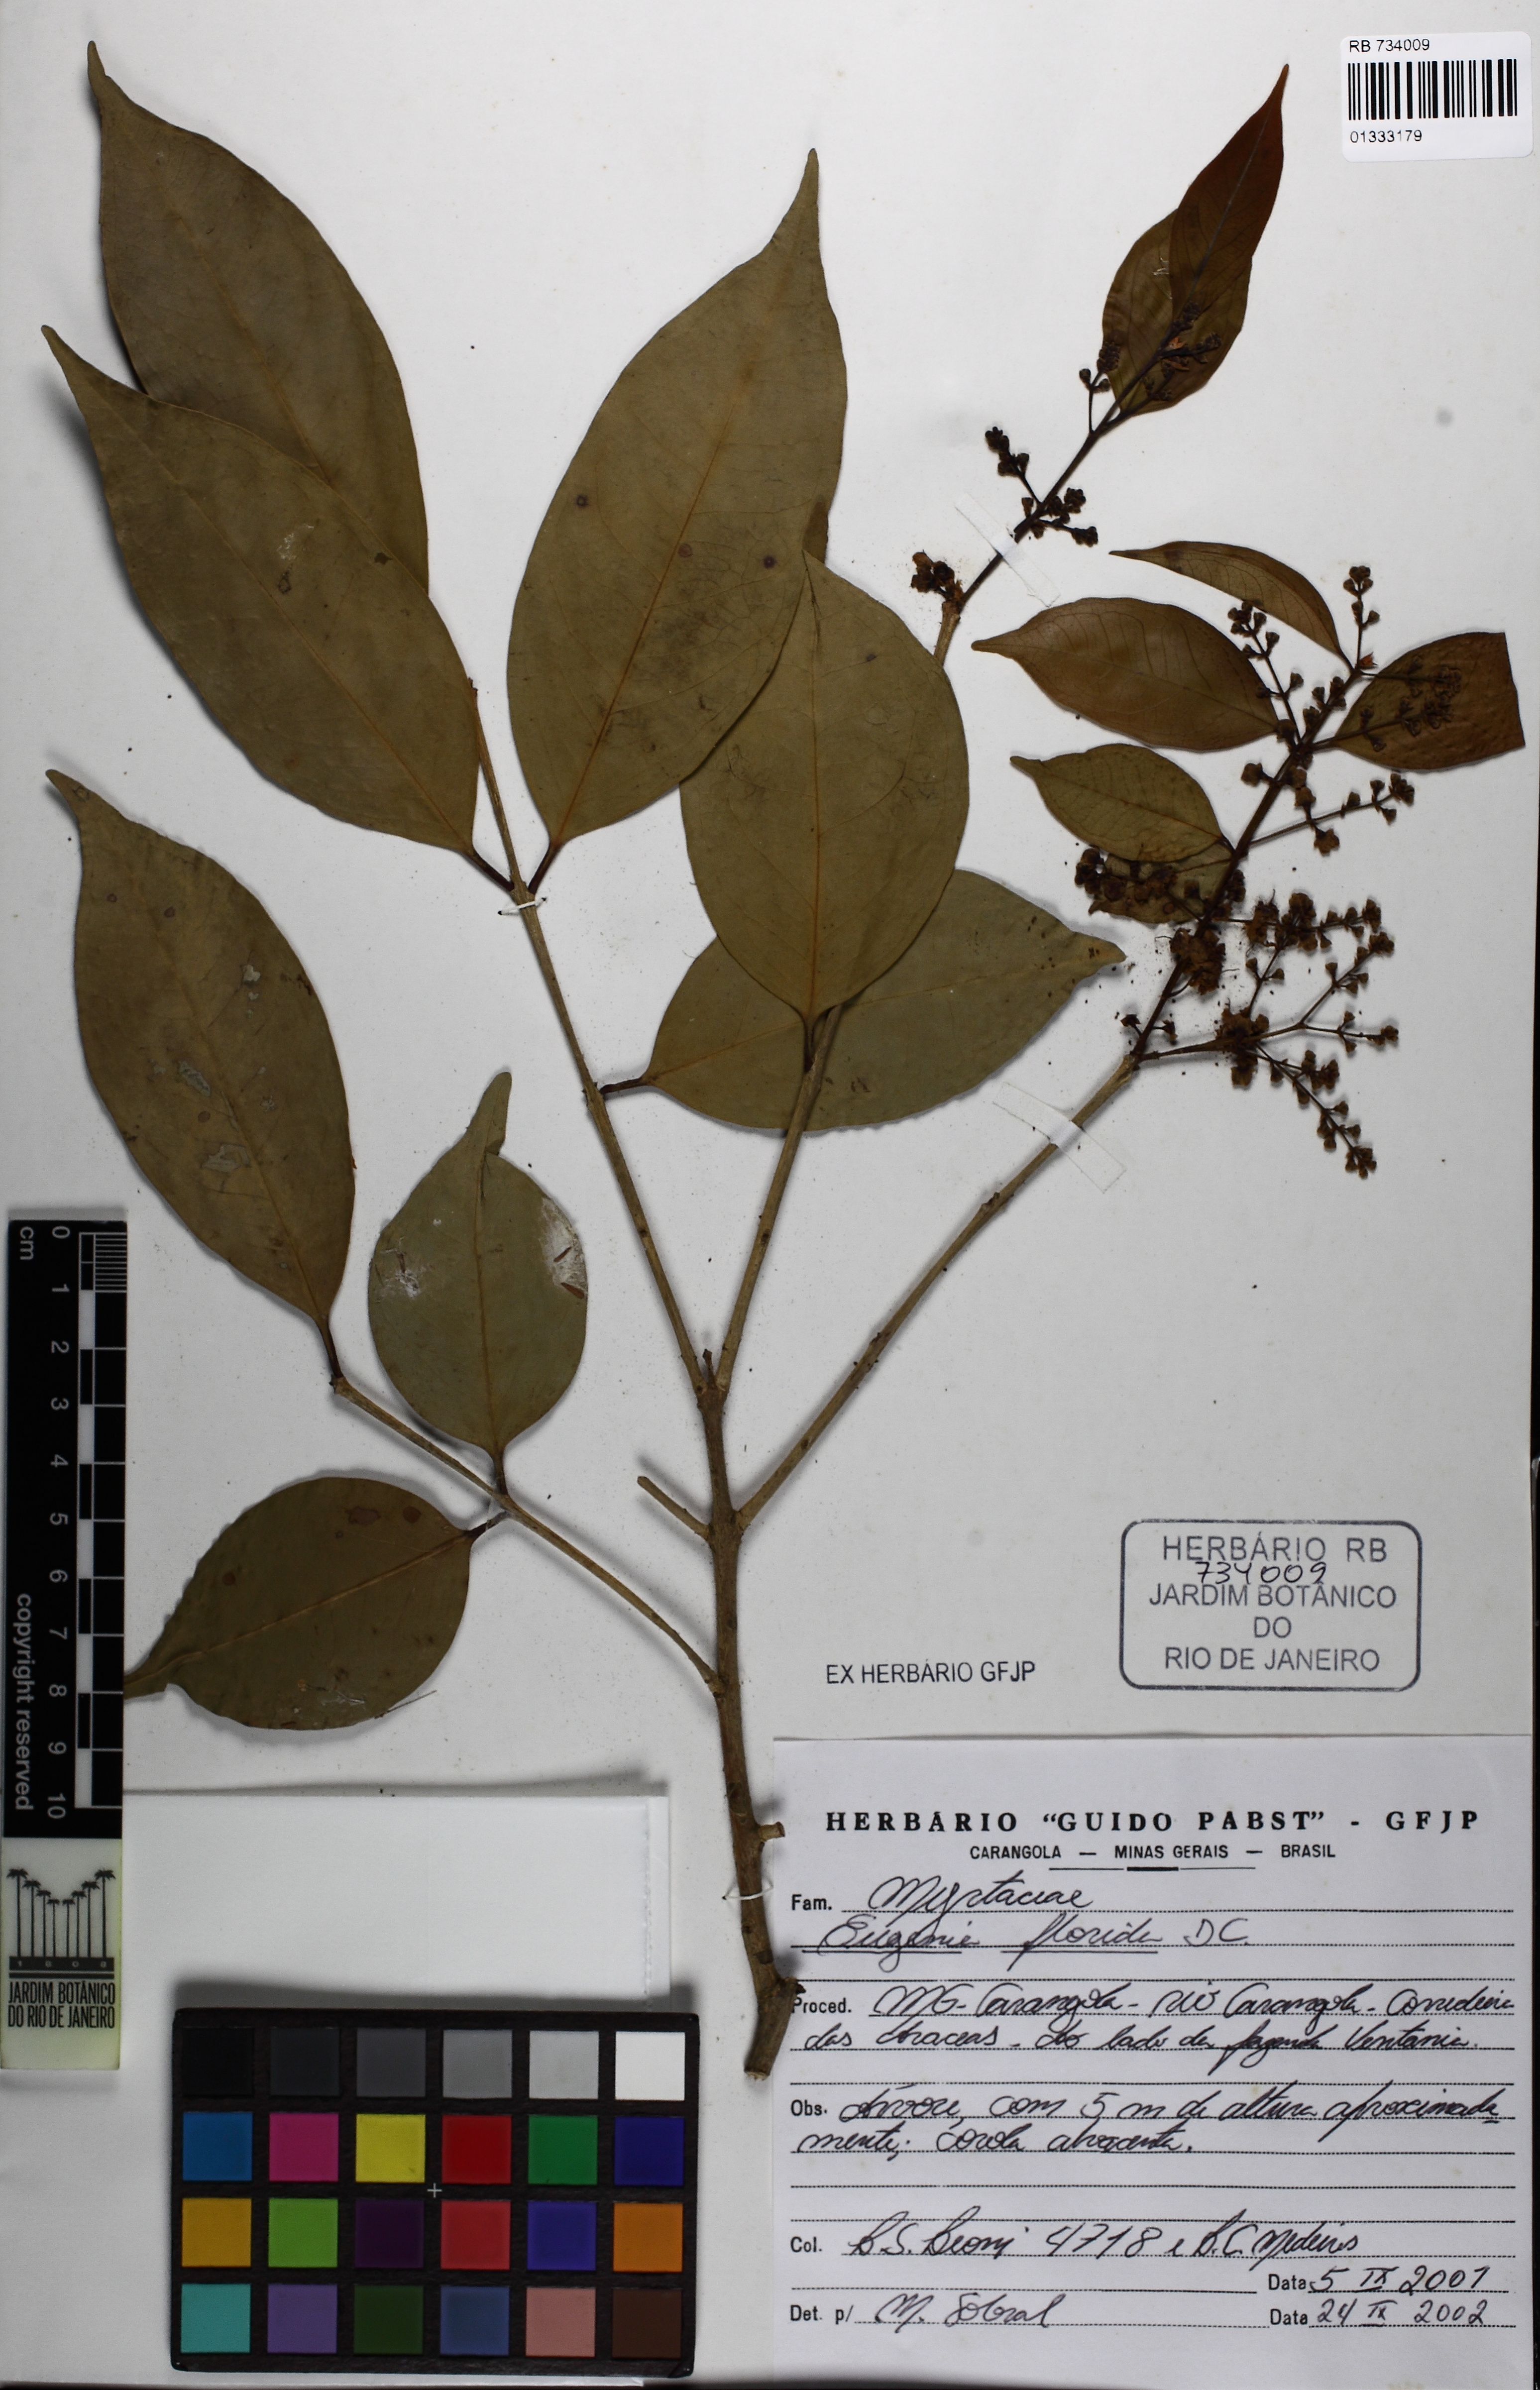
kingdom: Plantae
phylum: Tracheophyta
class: Magnoliopsida
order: Myrtales
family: Myrtaceae
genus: Eugenia
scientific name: Eugenia florida
